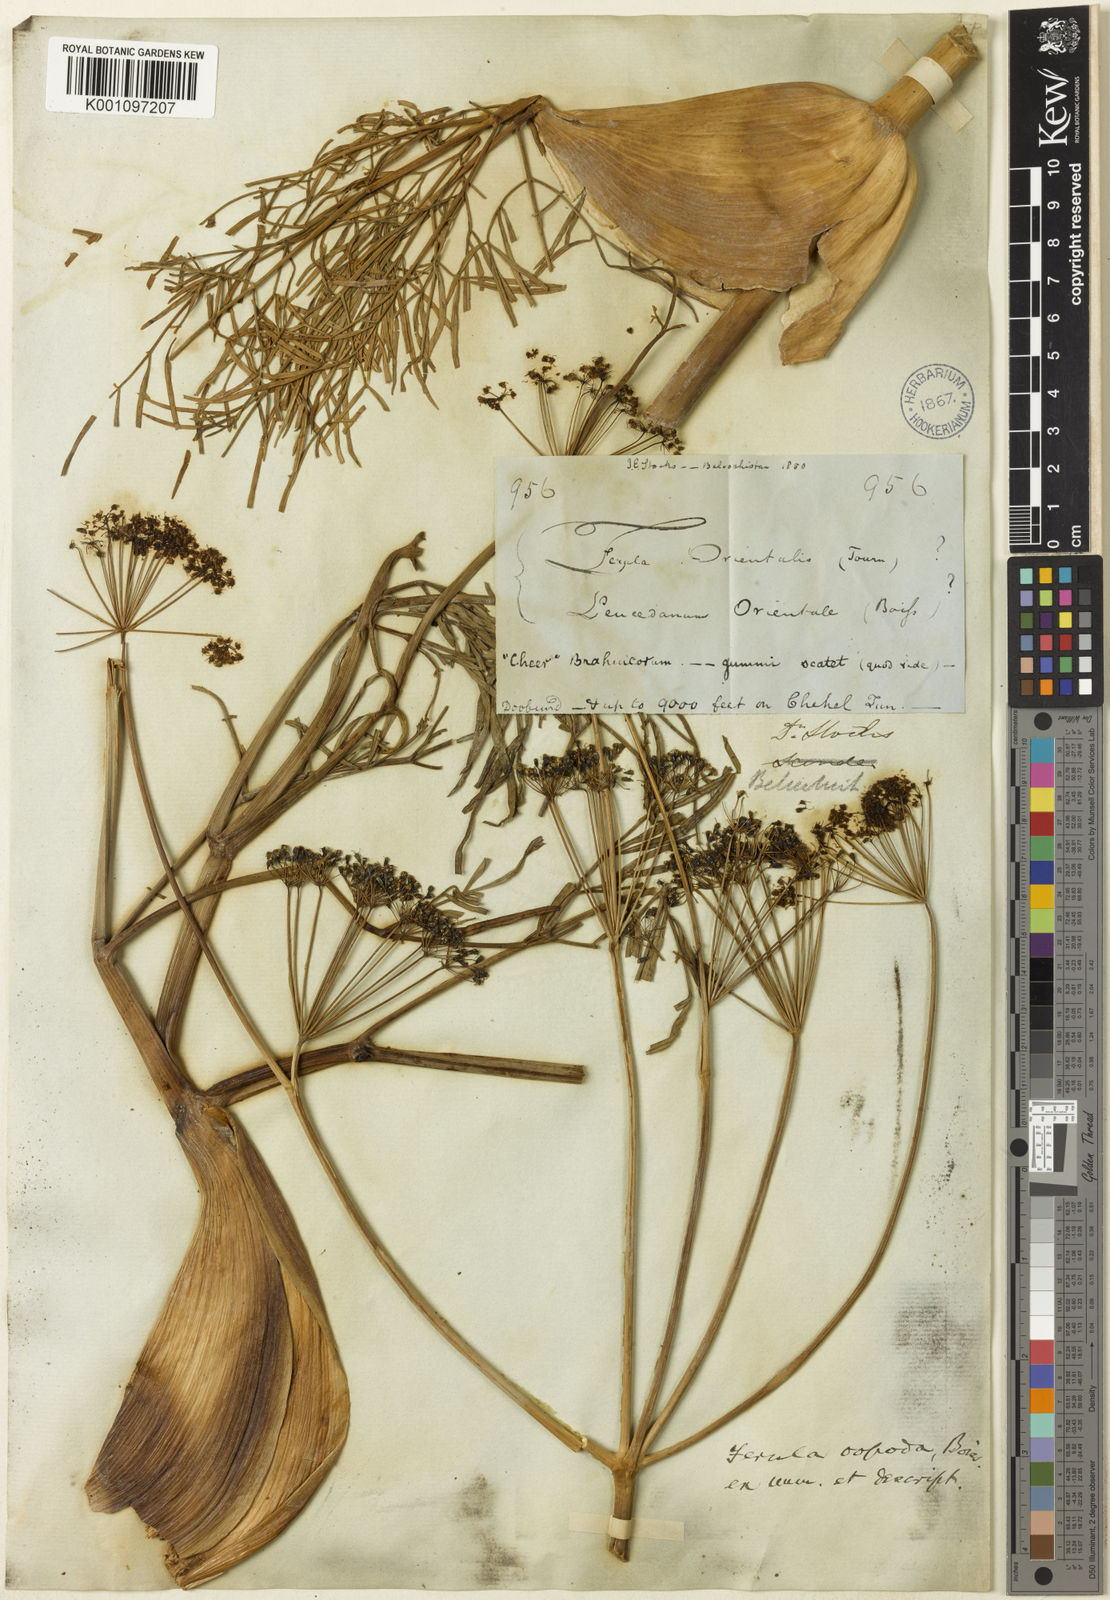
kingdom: Plantae
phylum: Tracheophyta
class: Magnoliopsida
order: Apiales
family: Apiaceae
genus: Ferula
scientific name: Ferula oopoda
